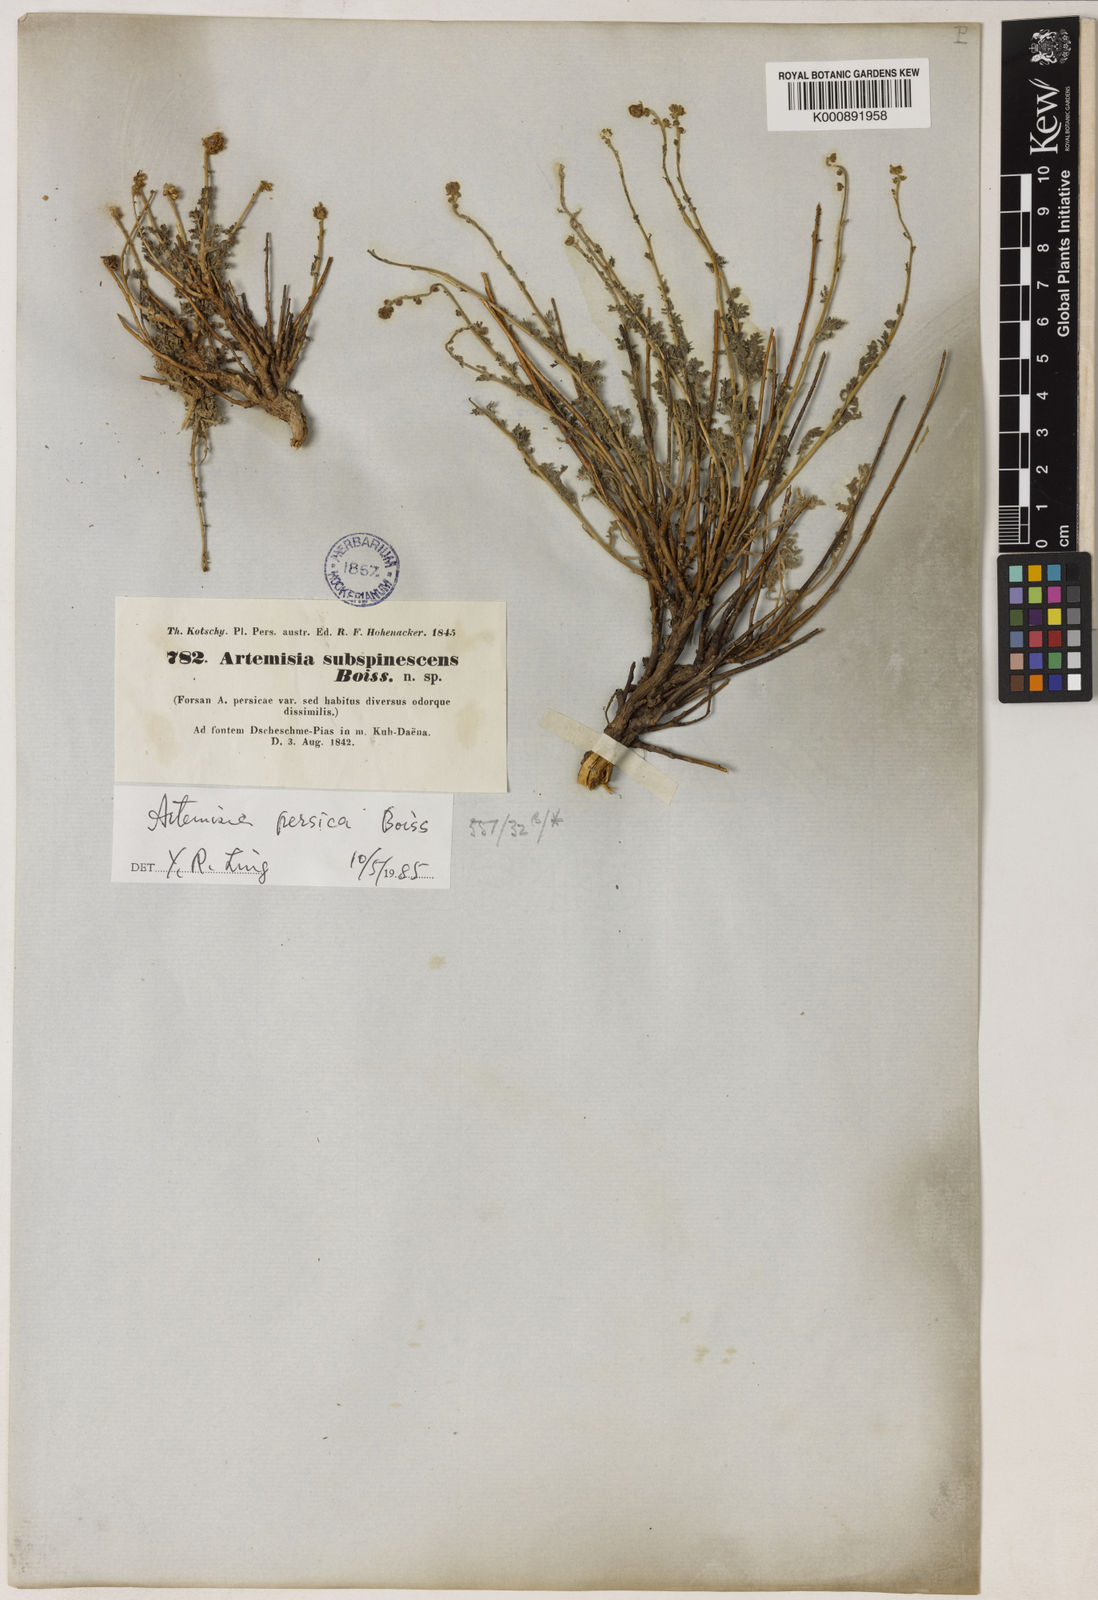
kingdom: Plantae
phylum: Tracheophyta
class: Magnoliopsida
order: Asterales
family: Asteraceae
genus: Artemisia
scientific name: Artemisia persica
